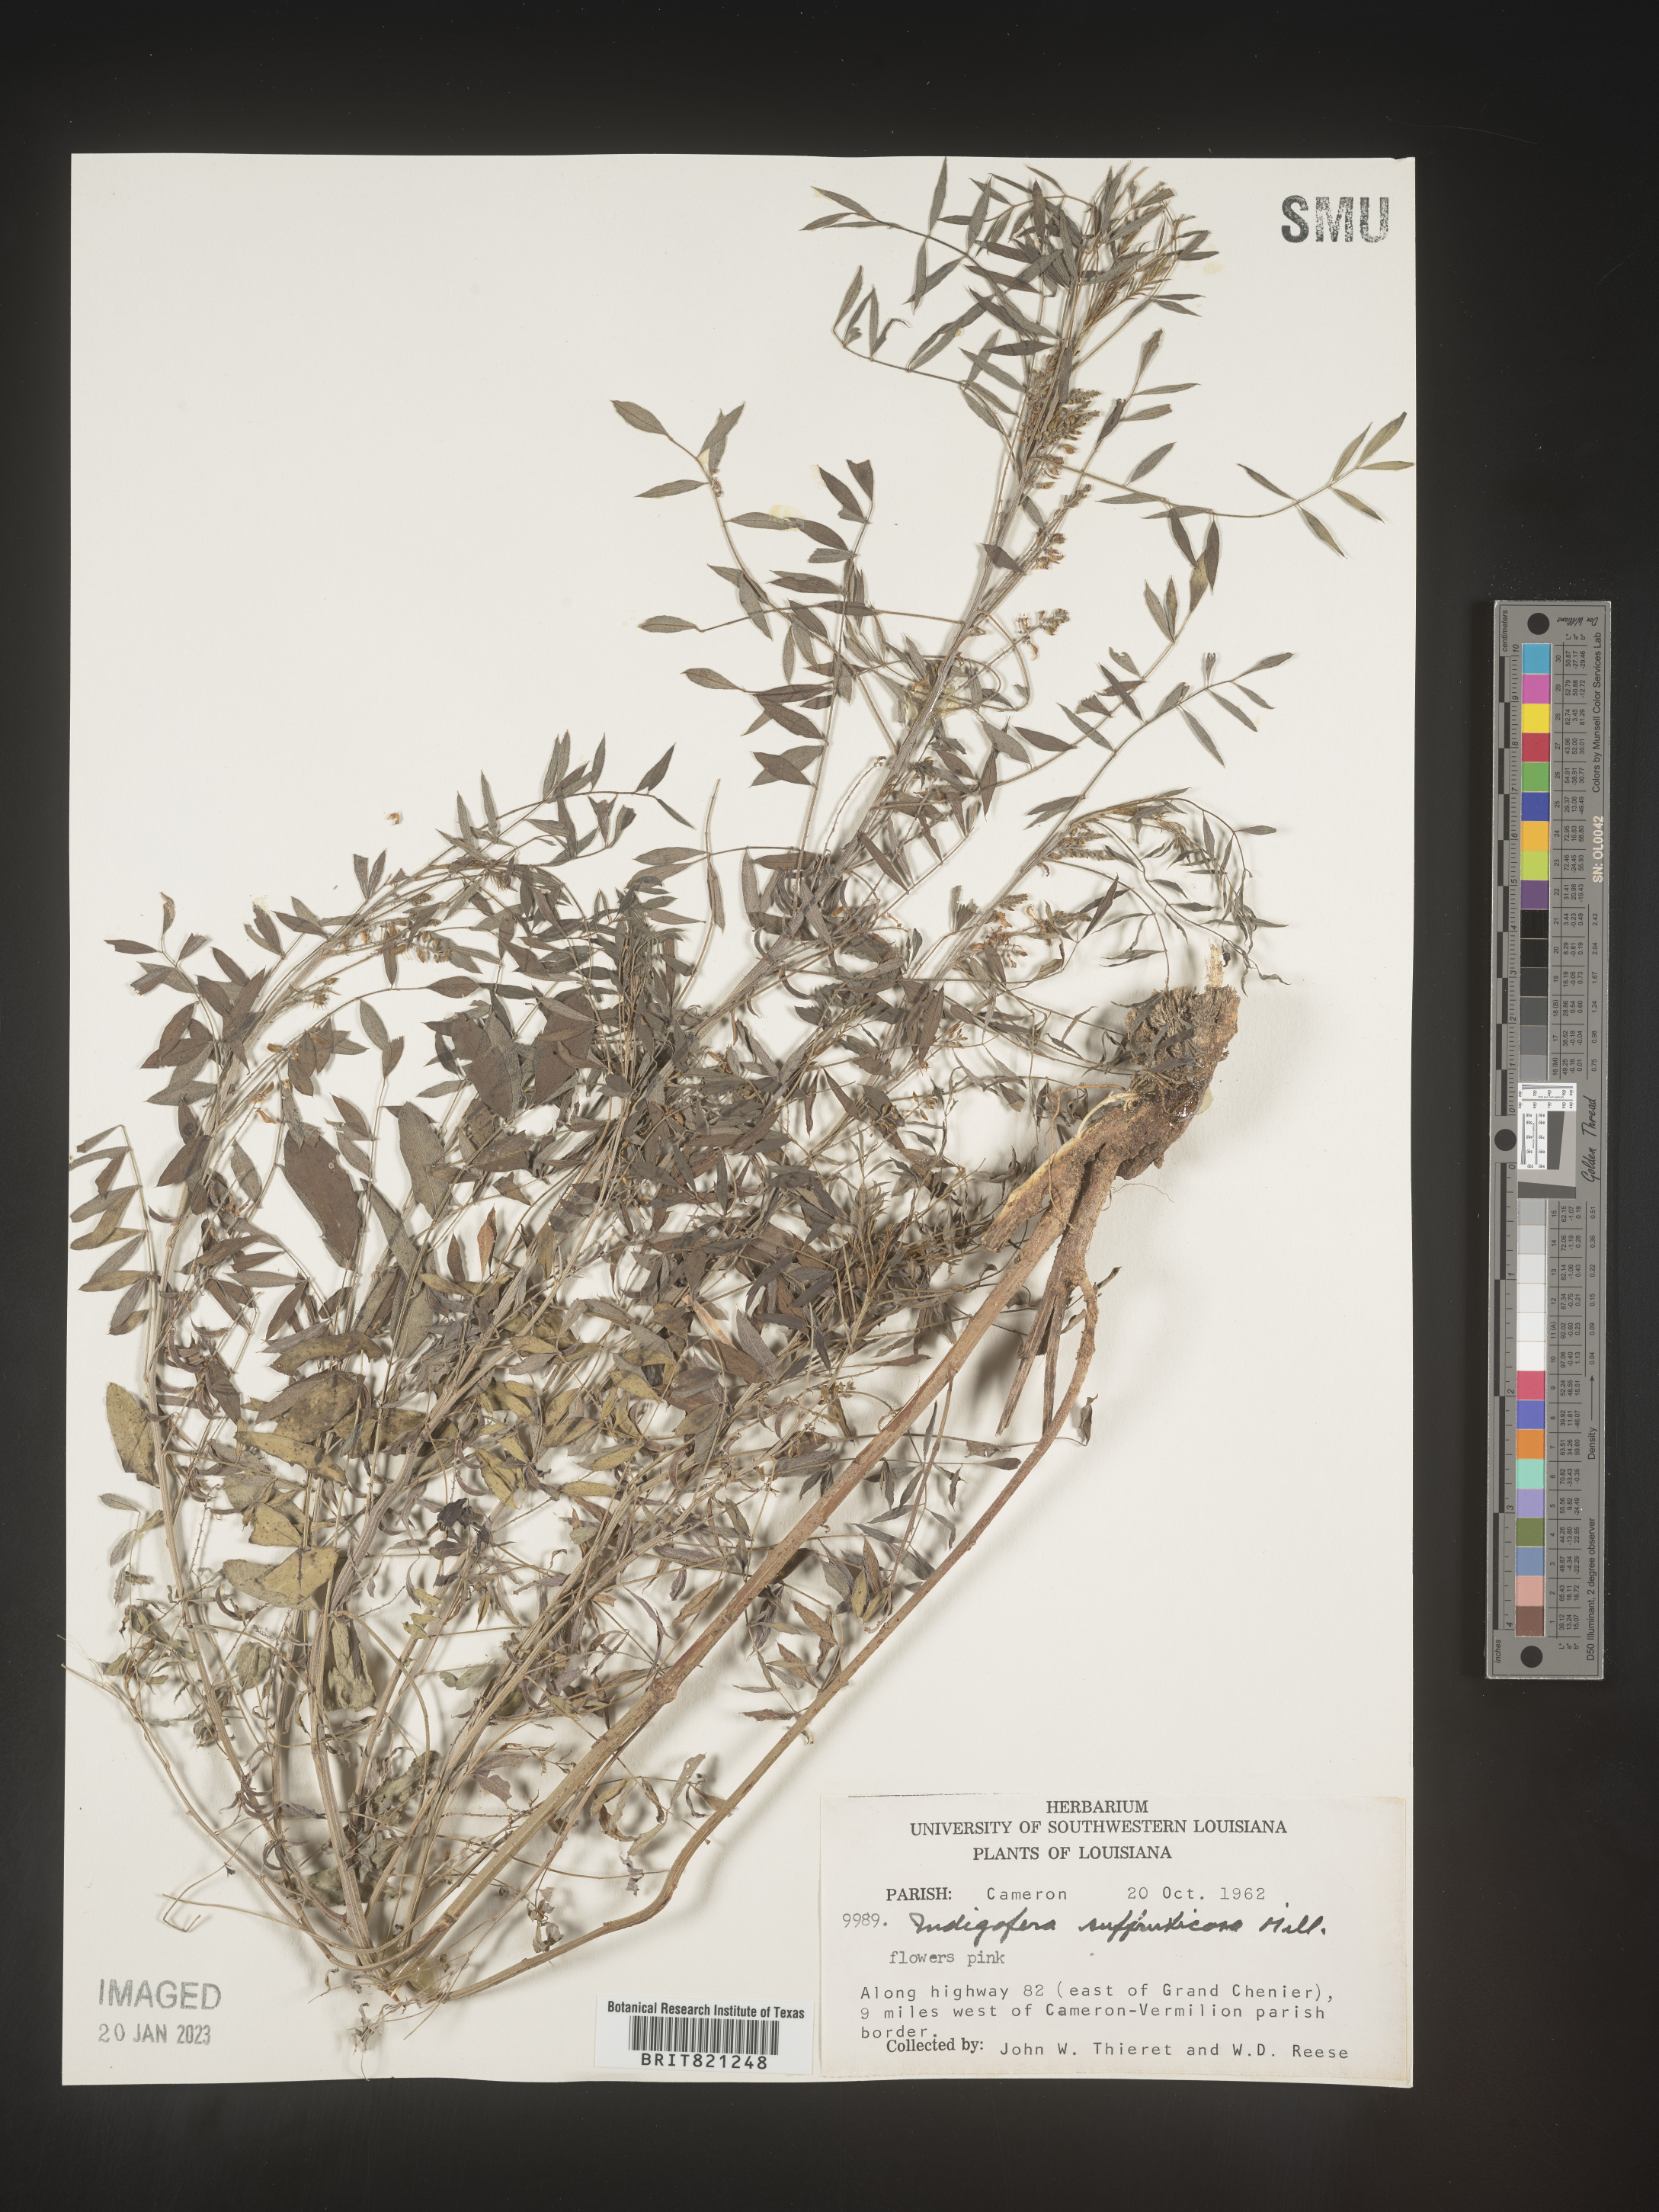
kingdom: Plantae
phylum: Tracheophyta
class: Magnoliopsida
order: Fabales
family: Fabaceae
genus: Indigofera
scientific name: Indigofera
